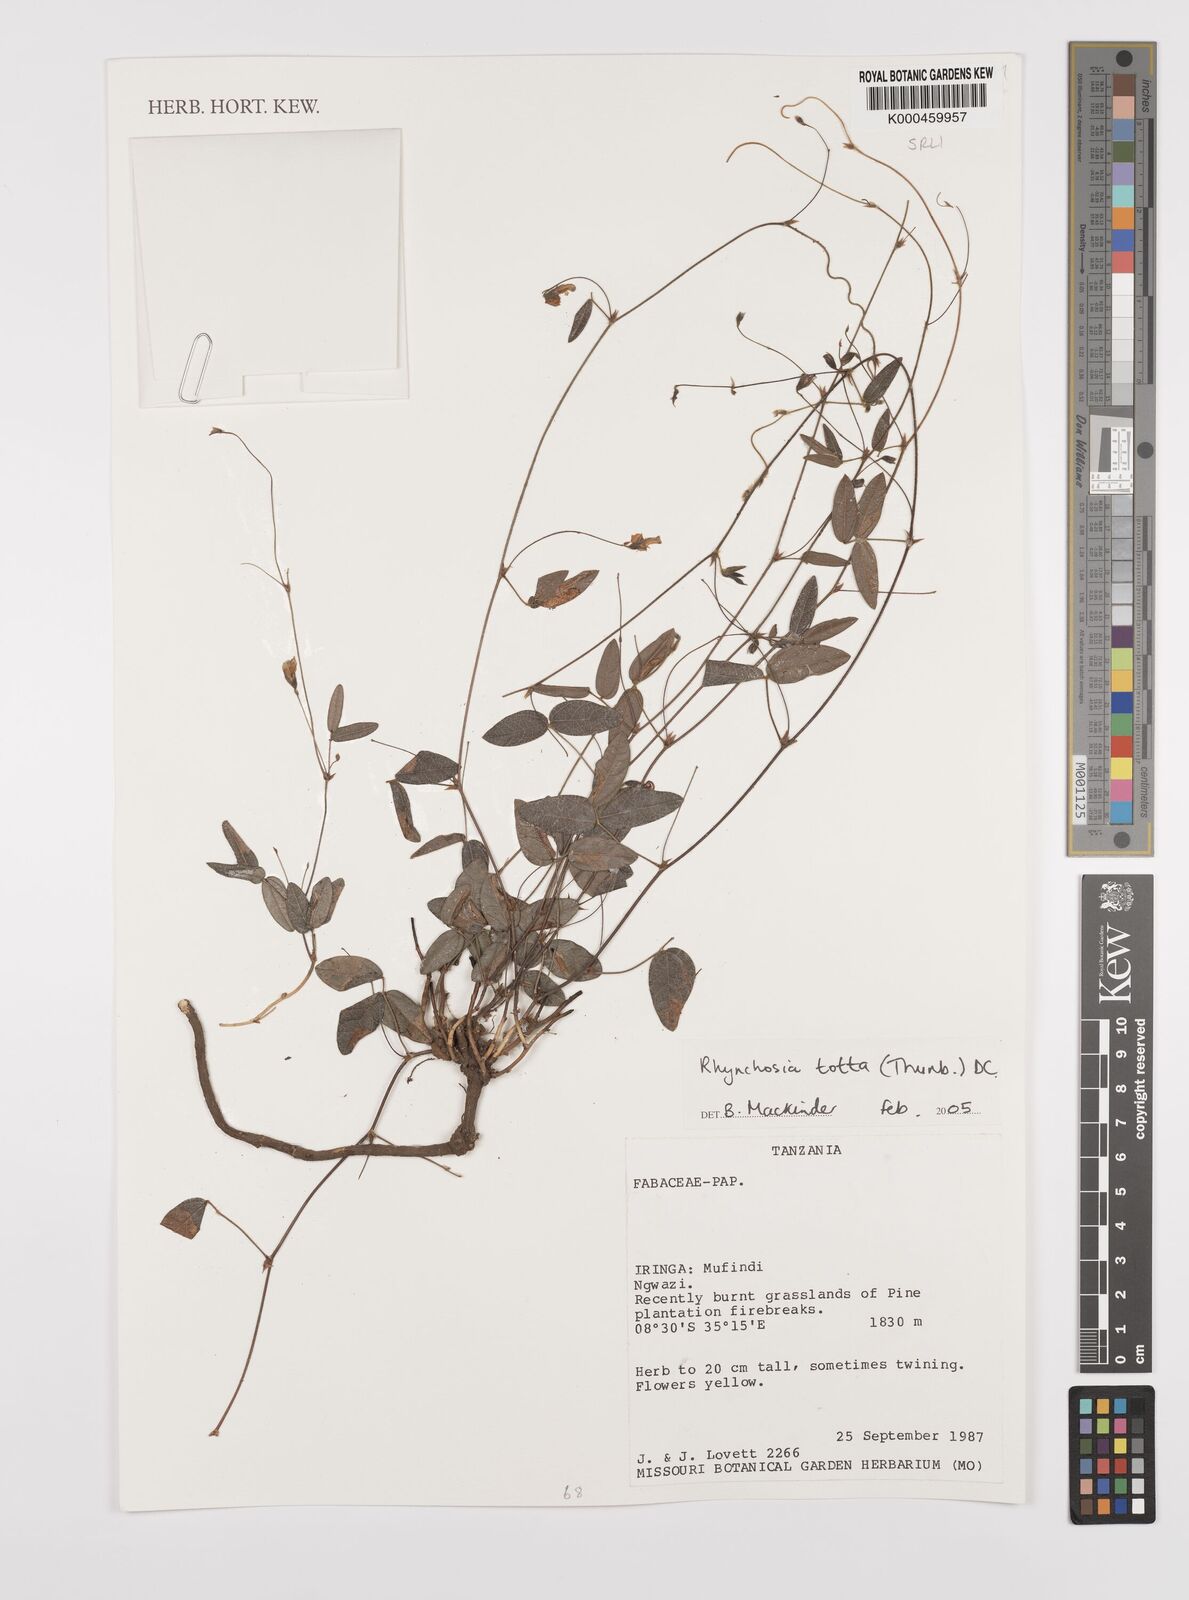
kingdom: Plantae
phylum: Tracheophyta
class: Magnoliopsida
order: Fabales
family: Fabaceae
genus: Rhynchosia
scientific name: Rhynchosia totta
